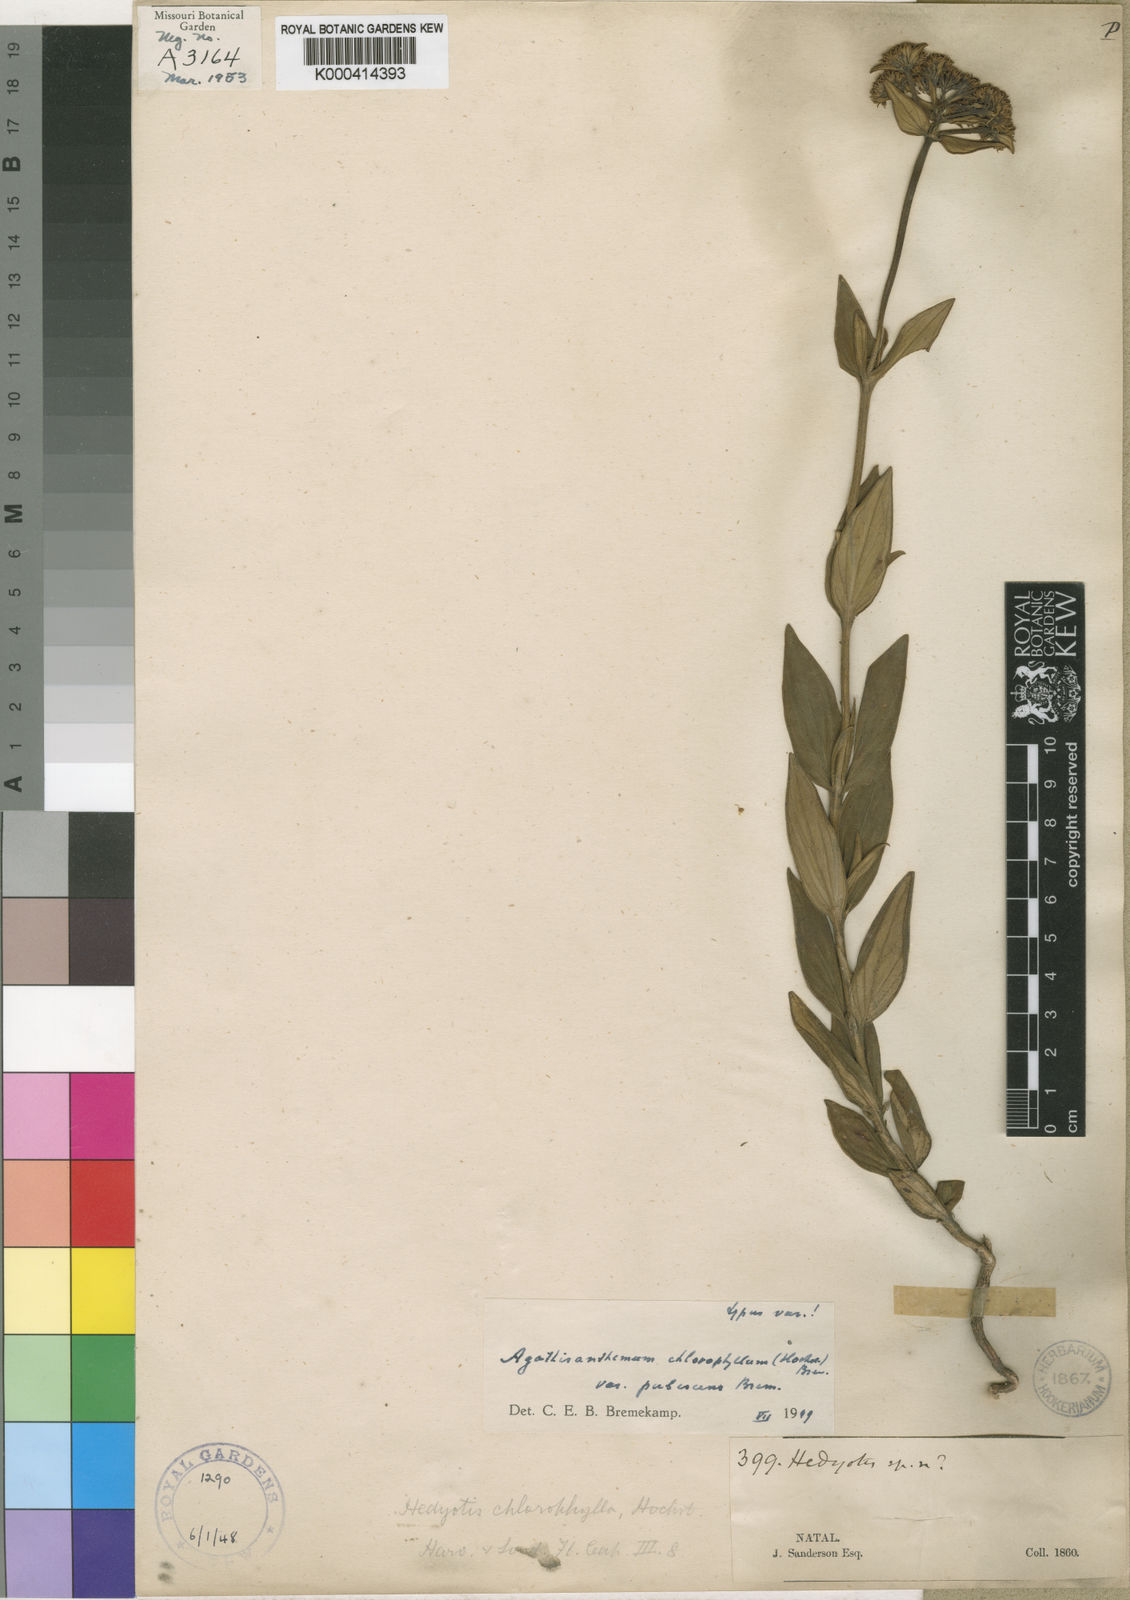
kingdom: Plantae
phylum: Tracheophyta
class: Magnoliopsida
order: Gentianales
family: Rubiaceae
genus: Agathisanthemum
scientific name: Agathisanthemum chlorophyllum
